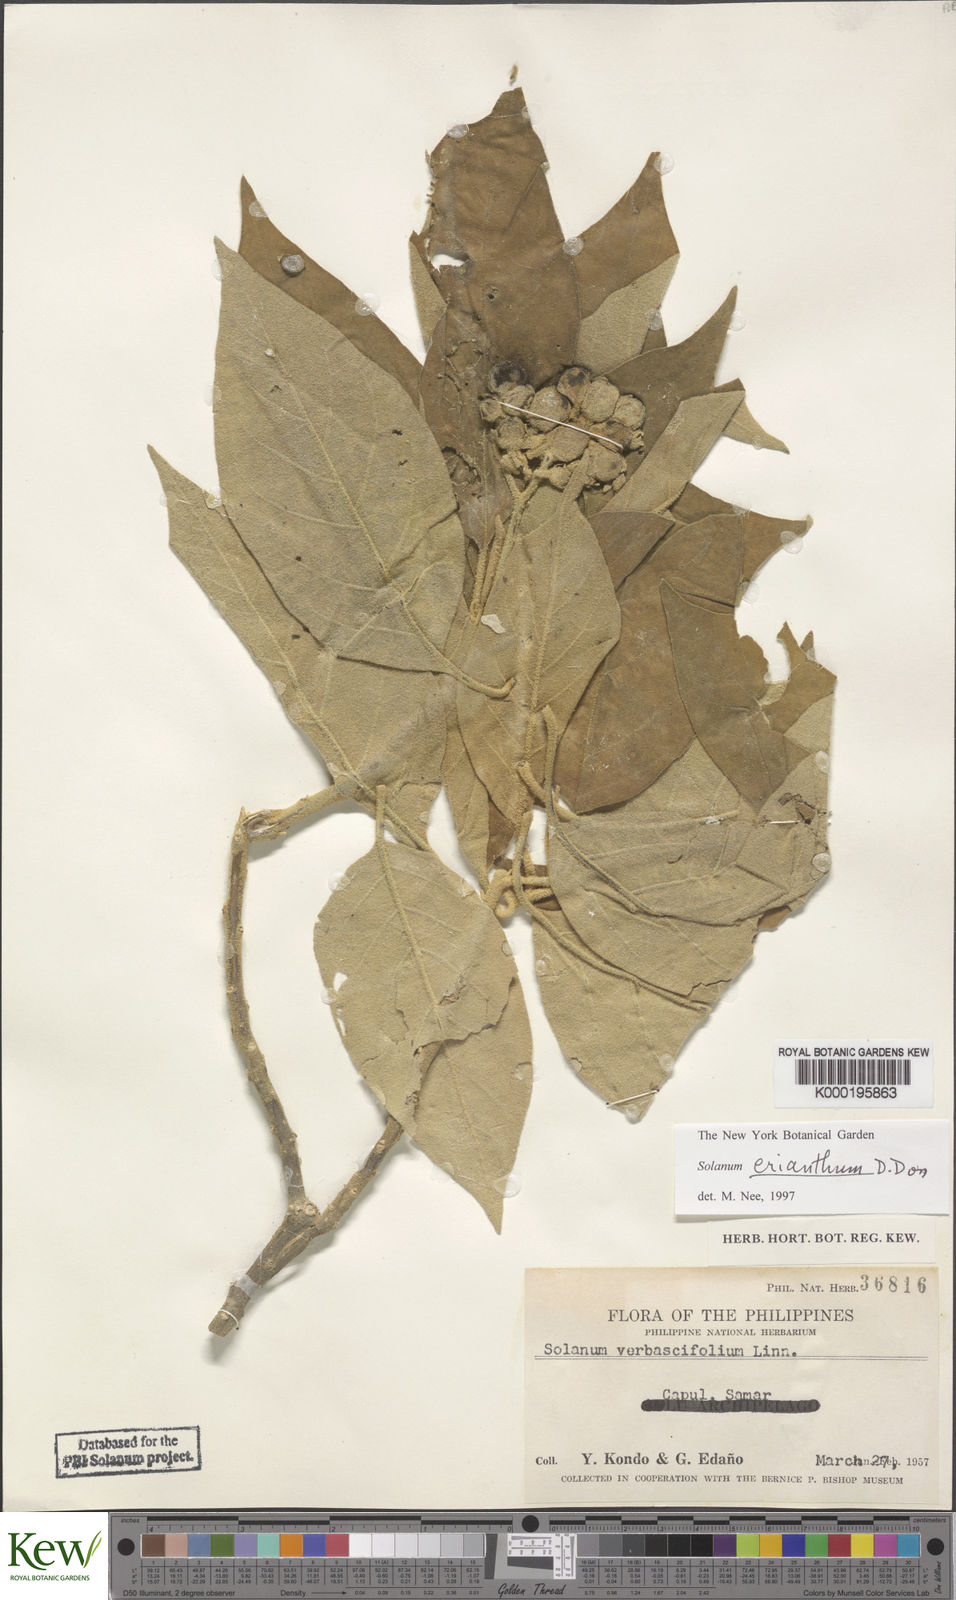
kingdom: Plantae
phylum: Tracheophyta
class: Magnoliopsida
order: Solanales
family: Solanaceae
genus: Solanum
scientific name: Solanum erianthum
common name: Tobacco-tree
